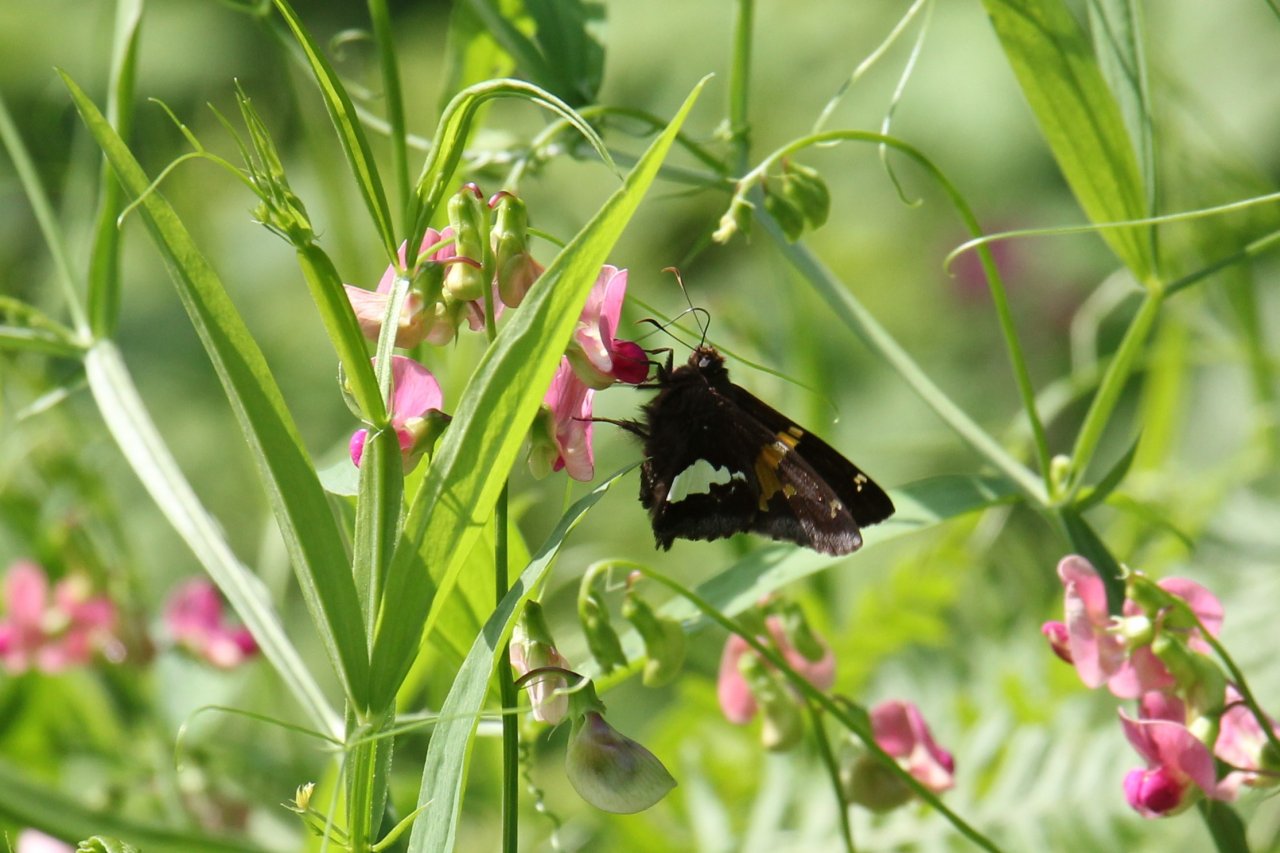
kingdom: Animalia
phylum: Arthropoda
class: Insecta
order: Lepidoptera
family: Hesperiidae
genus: Epargyreus
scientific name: Epargyreus clarus
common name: Silver-spotted Skipper
